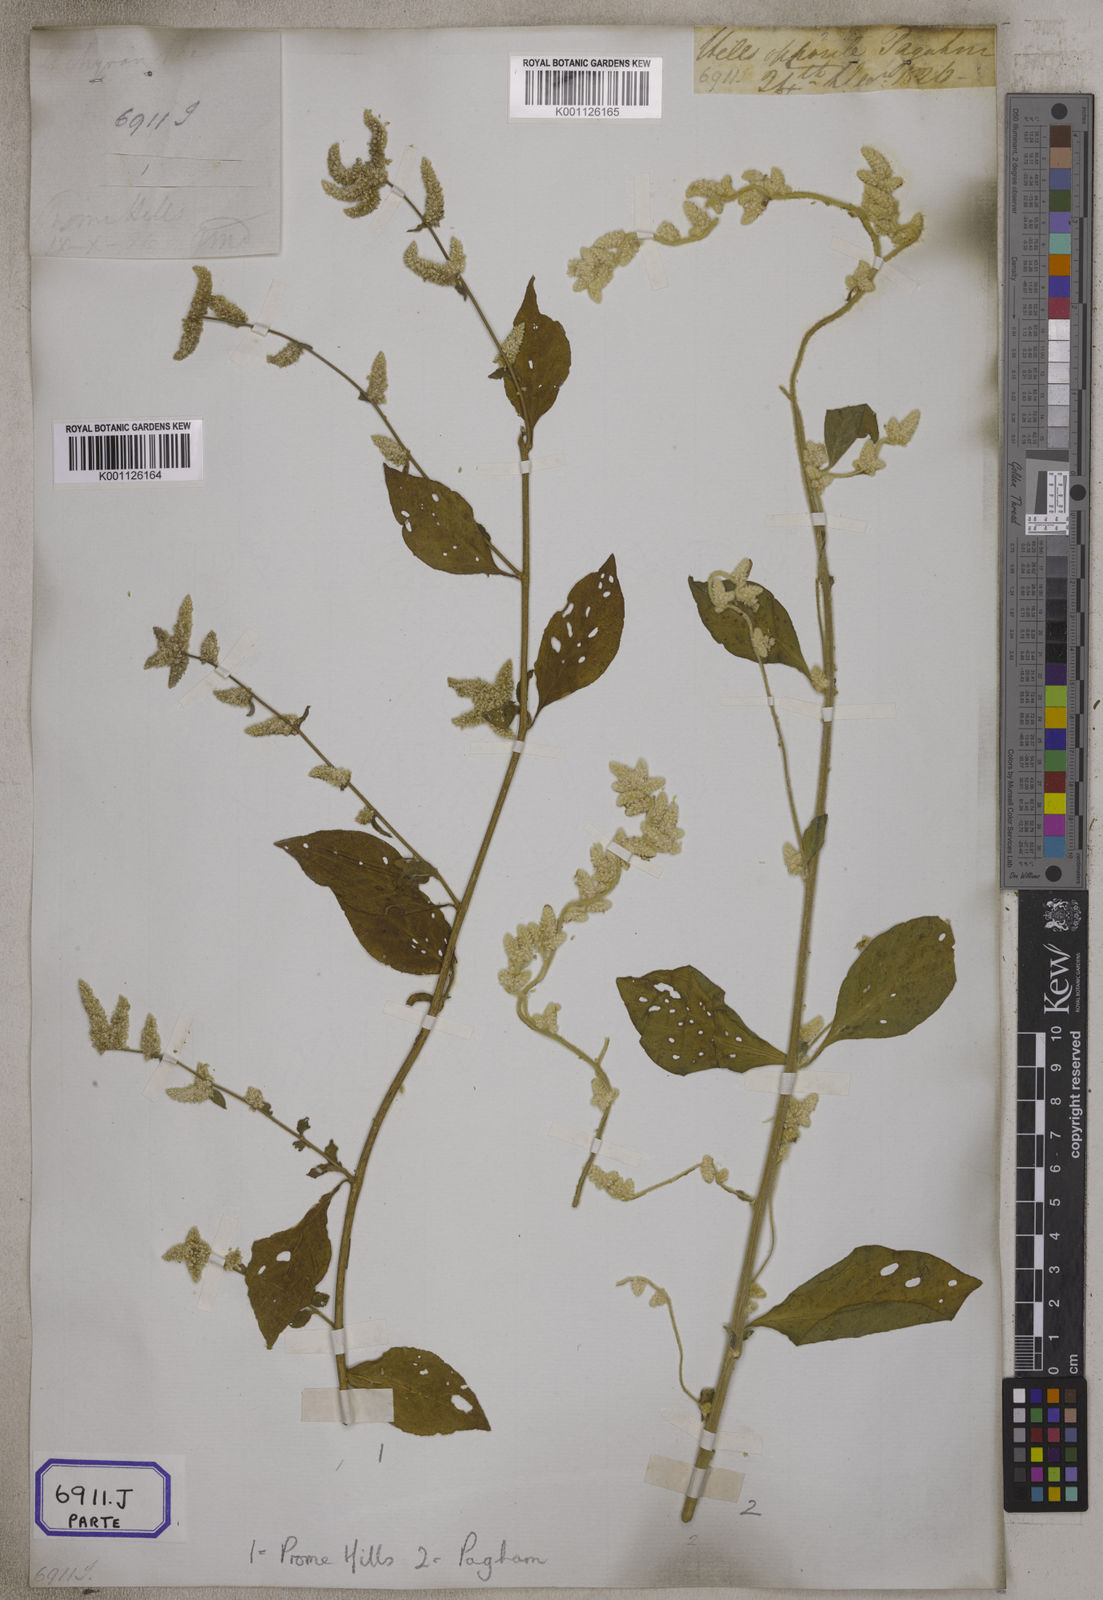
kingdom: Plantae
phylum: Tracheophyta
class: Magnoliopsida
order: Caryophyllales
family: Amaranthaceae
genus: Ouret
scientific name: Ouret sanguinolenta
